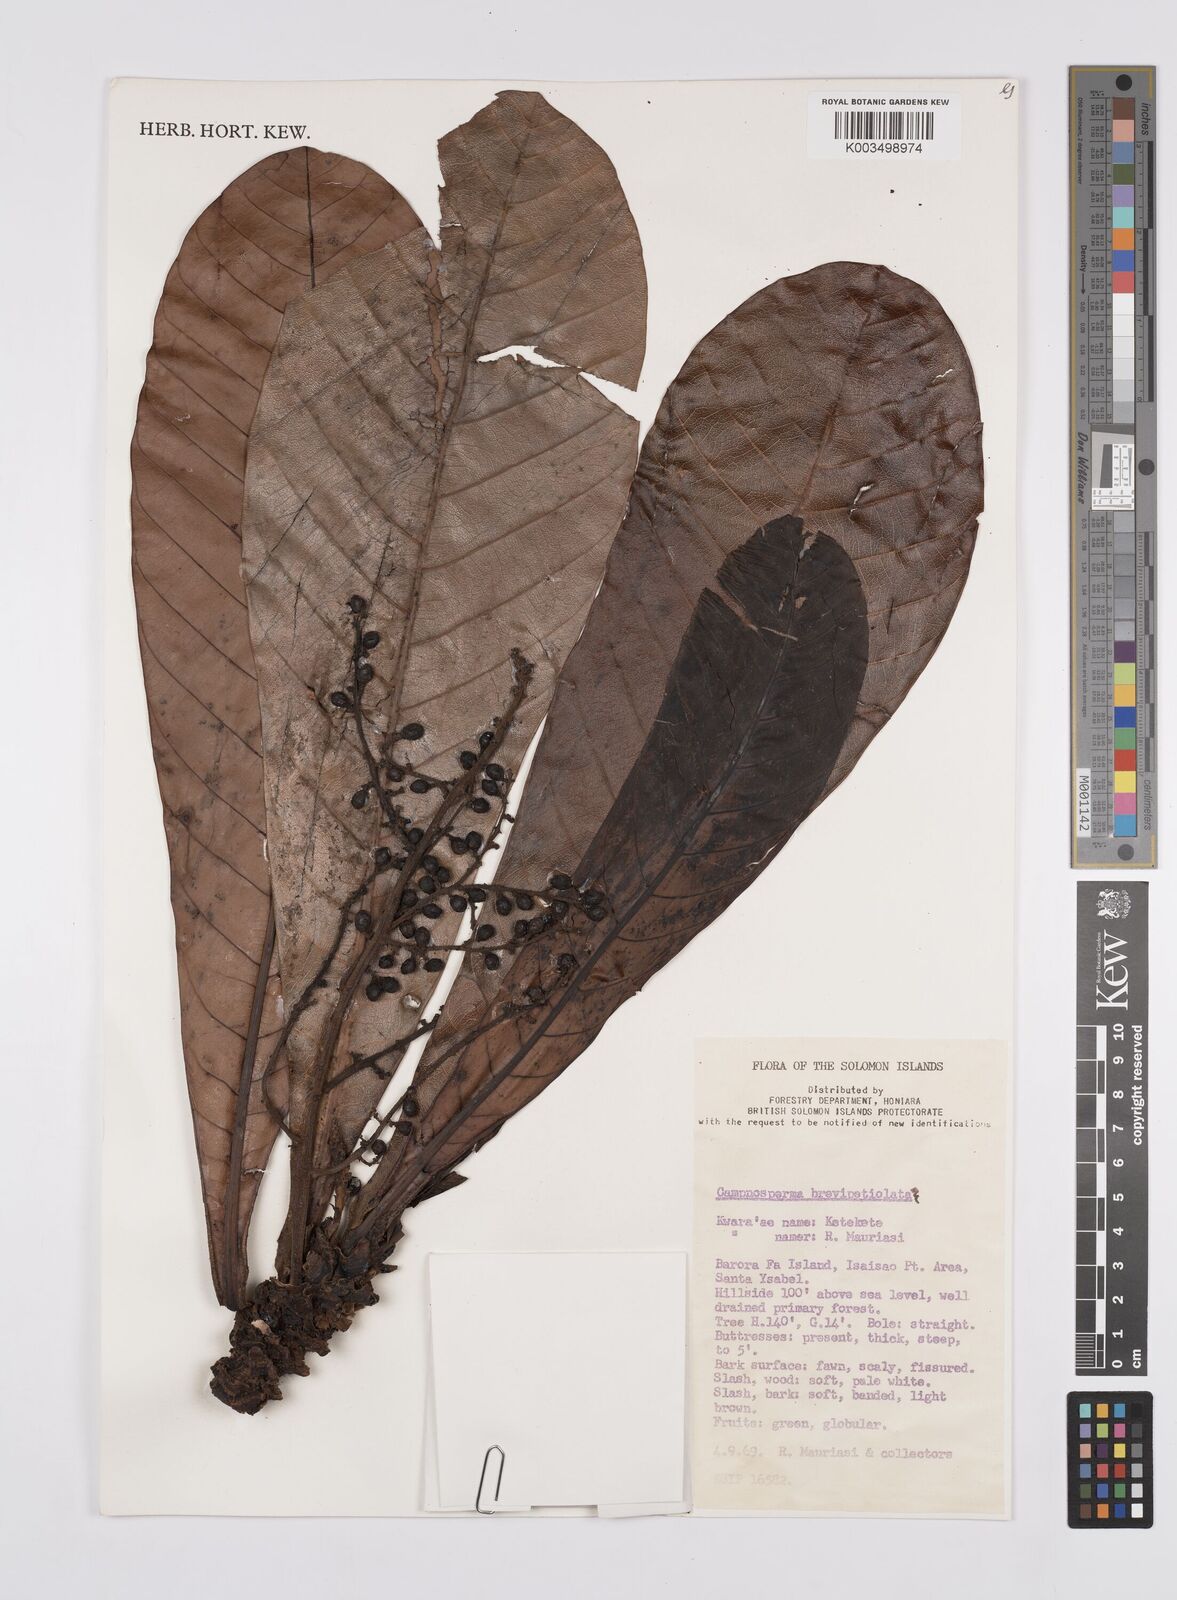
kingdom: Plantae
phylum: Tracheophyta
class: Magnoliopsida
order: Sapindales
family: Anacardiaceae
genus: Campnosperma
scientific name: Campnosperma brevipetiolatum
